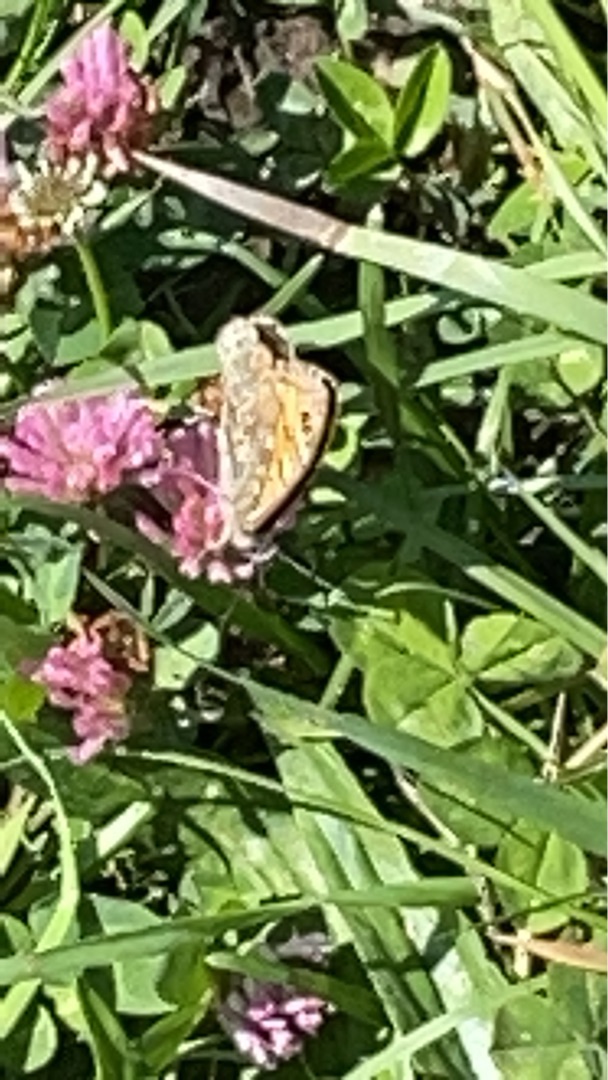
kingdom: Animalia
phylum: Arthropoda
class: Insecta
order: Lepidoptera
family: Nymphalidae
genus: Pararge
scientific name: Pararge Lasiommata megera
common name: Vejrandøje
